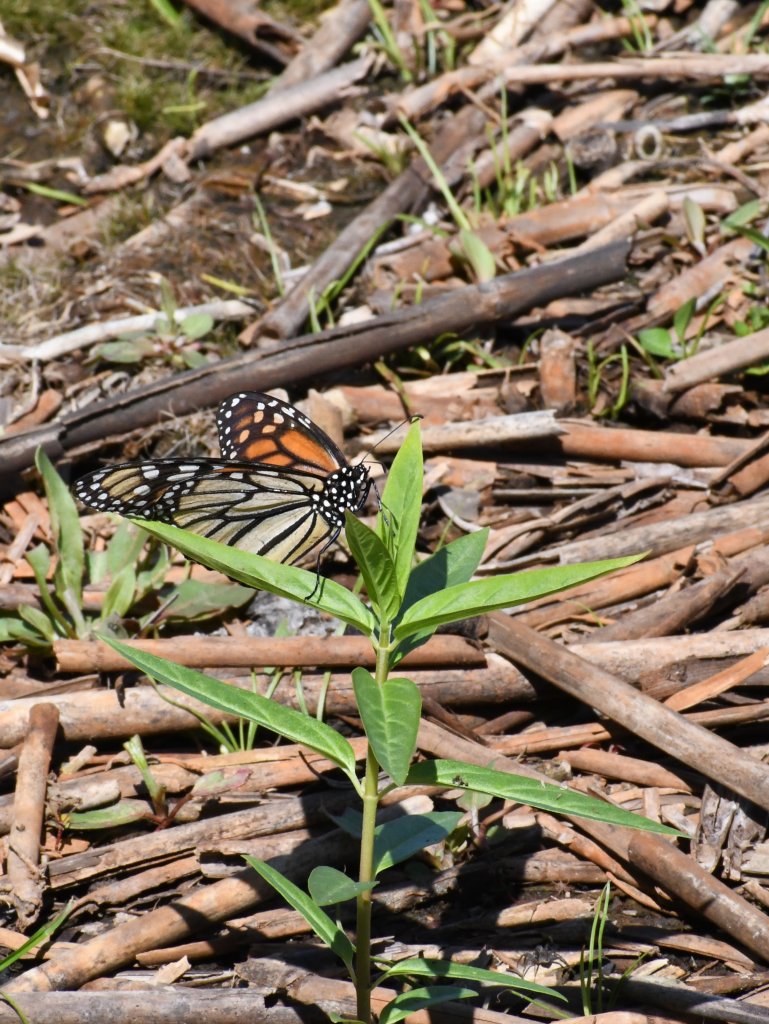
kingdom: Animalia
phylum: Arthropoda
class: Insecta
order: Lepidoptera
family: Nymphalidae
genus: Danaus
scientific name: Danaus plexippus
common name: Monarch
